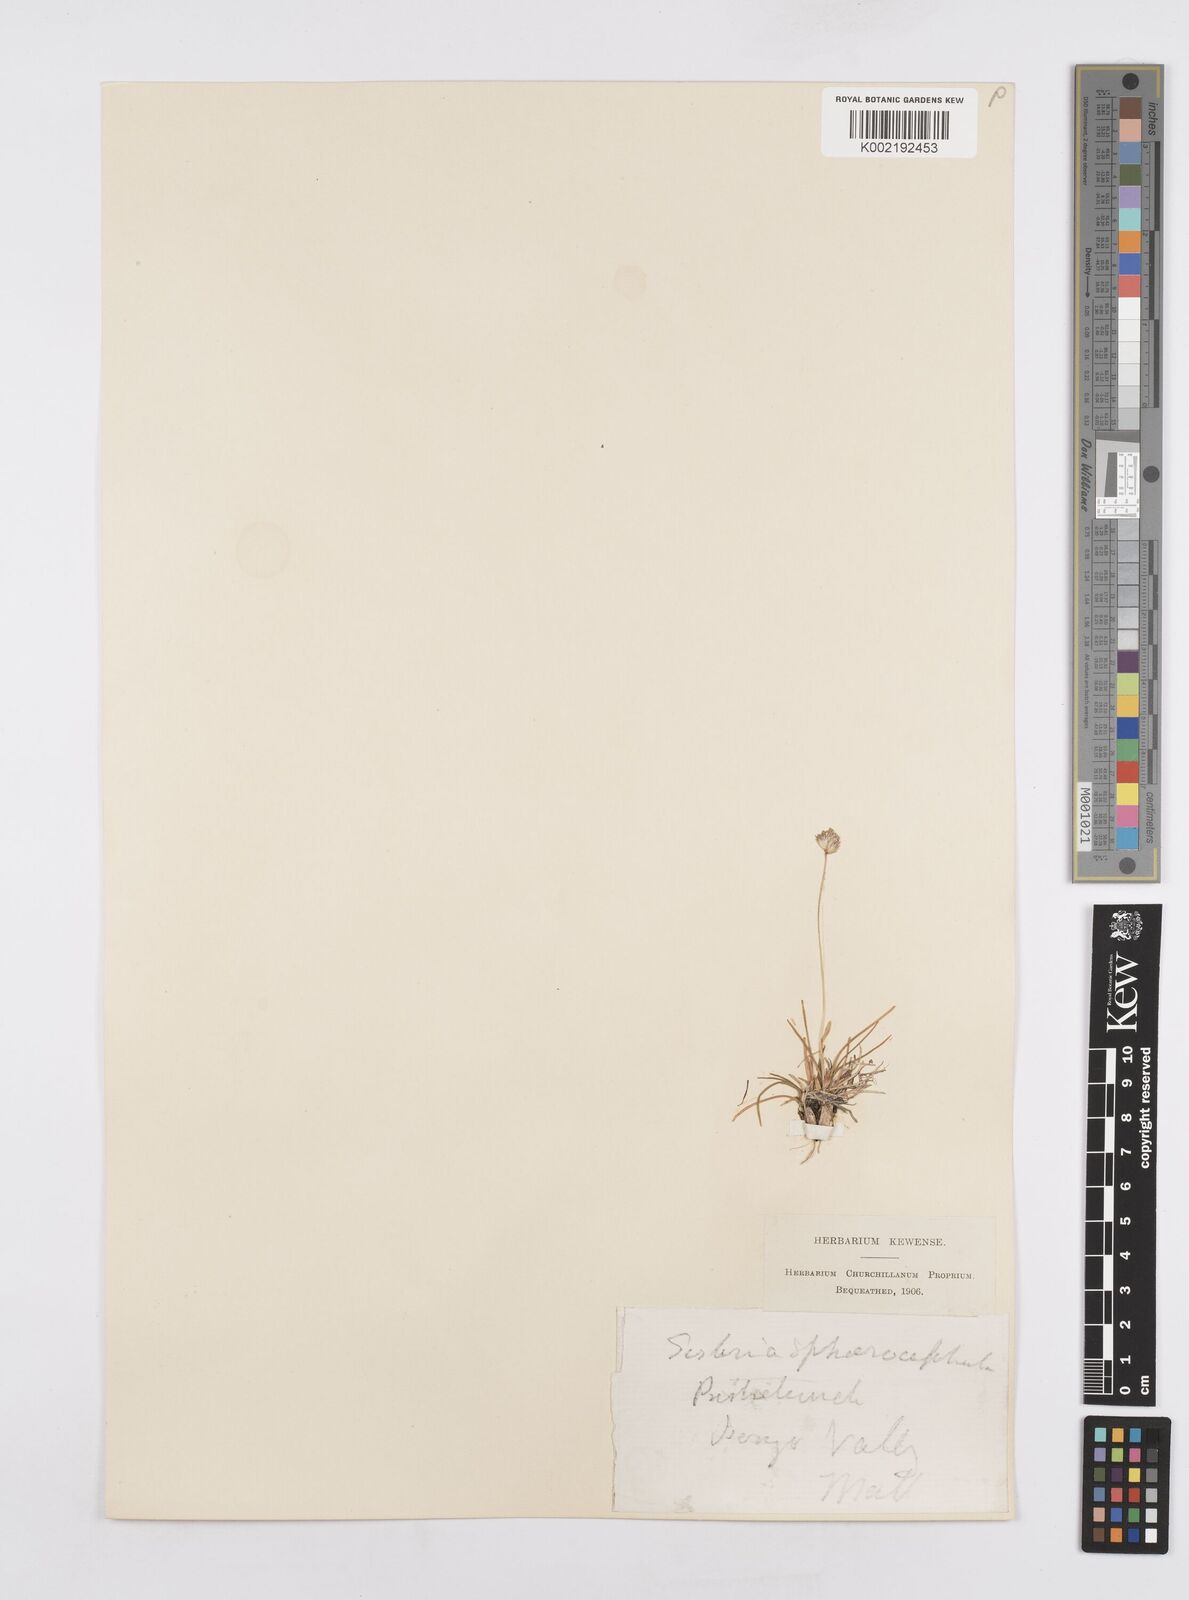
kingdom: Plantae
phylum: Tracheophyta
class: Liliopsida
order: Poales
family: Poaceae
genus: Sesleriella
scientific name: Sesleriella sphaerocephala
